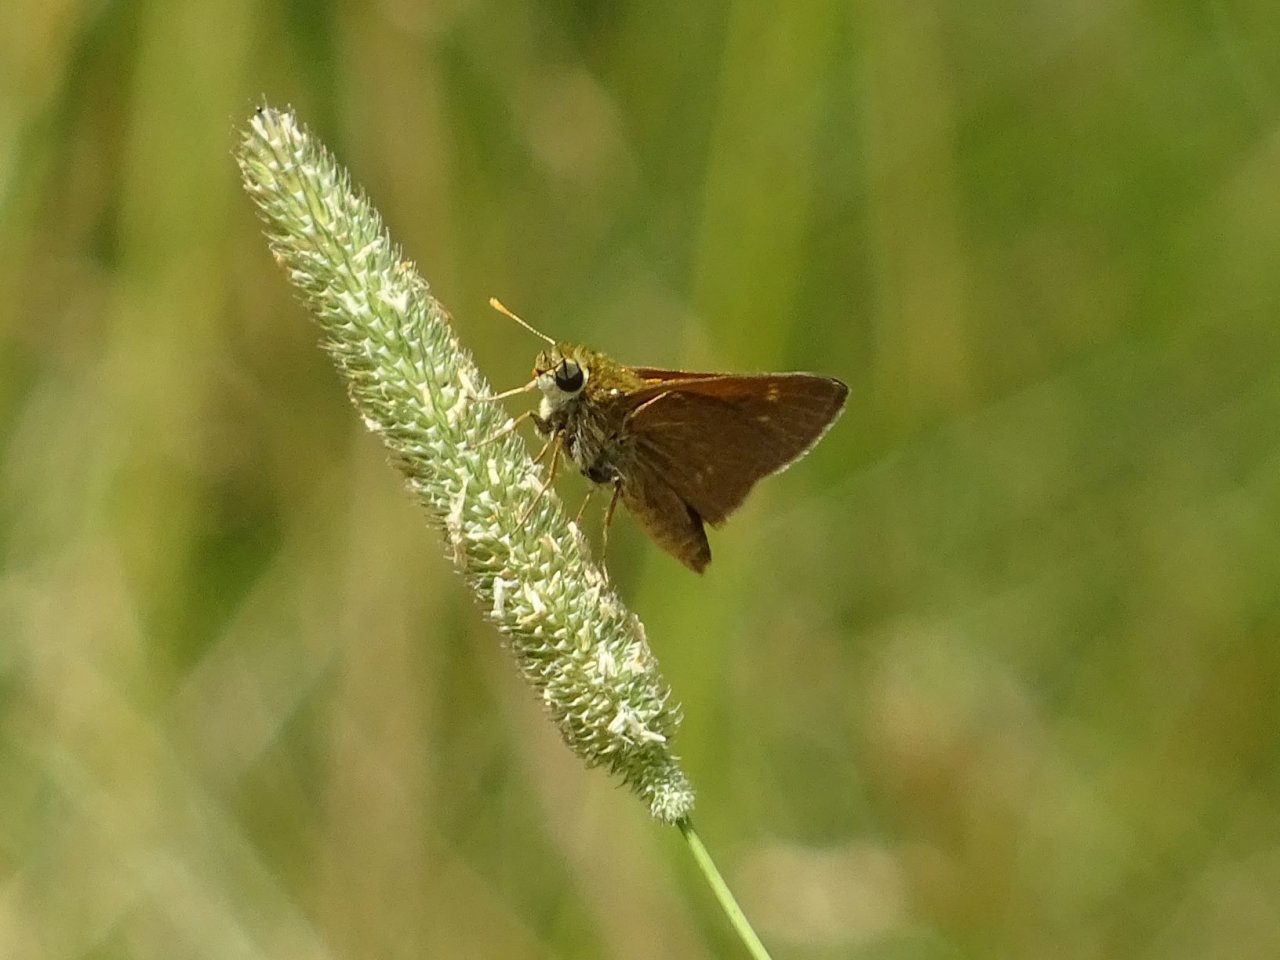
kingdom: Animalia
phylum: Arthropoda
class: Insecta
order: Lepidoptera
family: Hesperiidae
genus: Polites
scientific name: Polites
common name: Crossline Skipper
